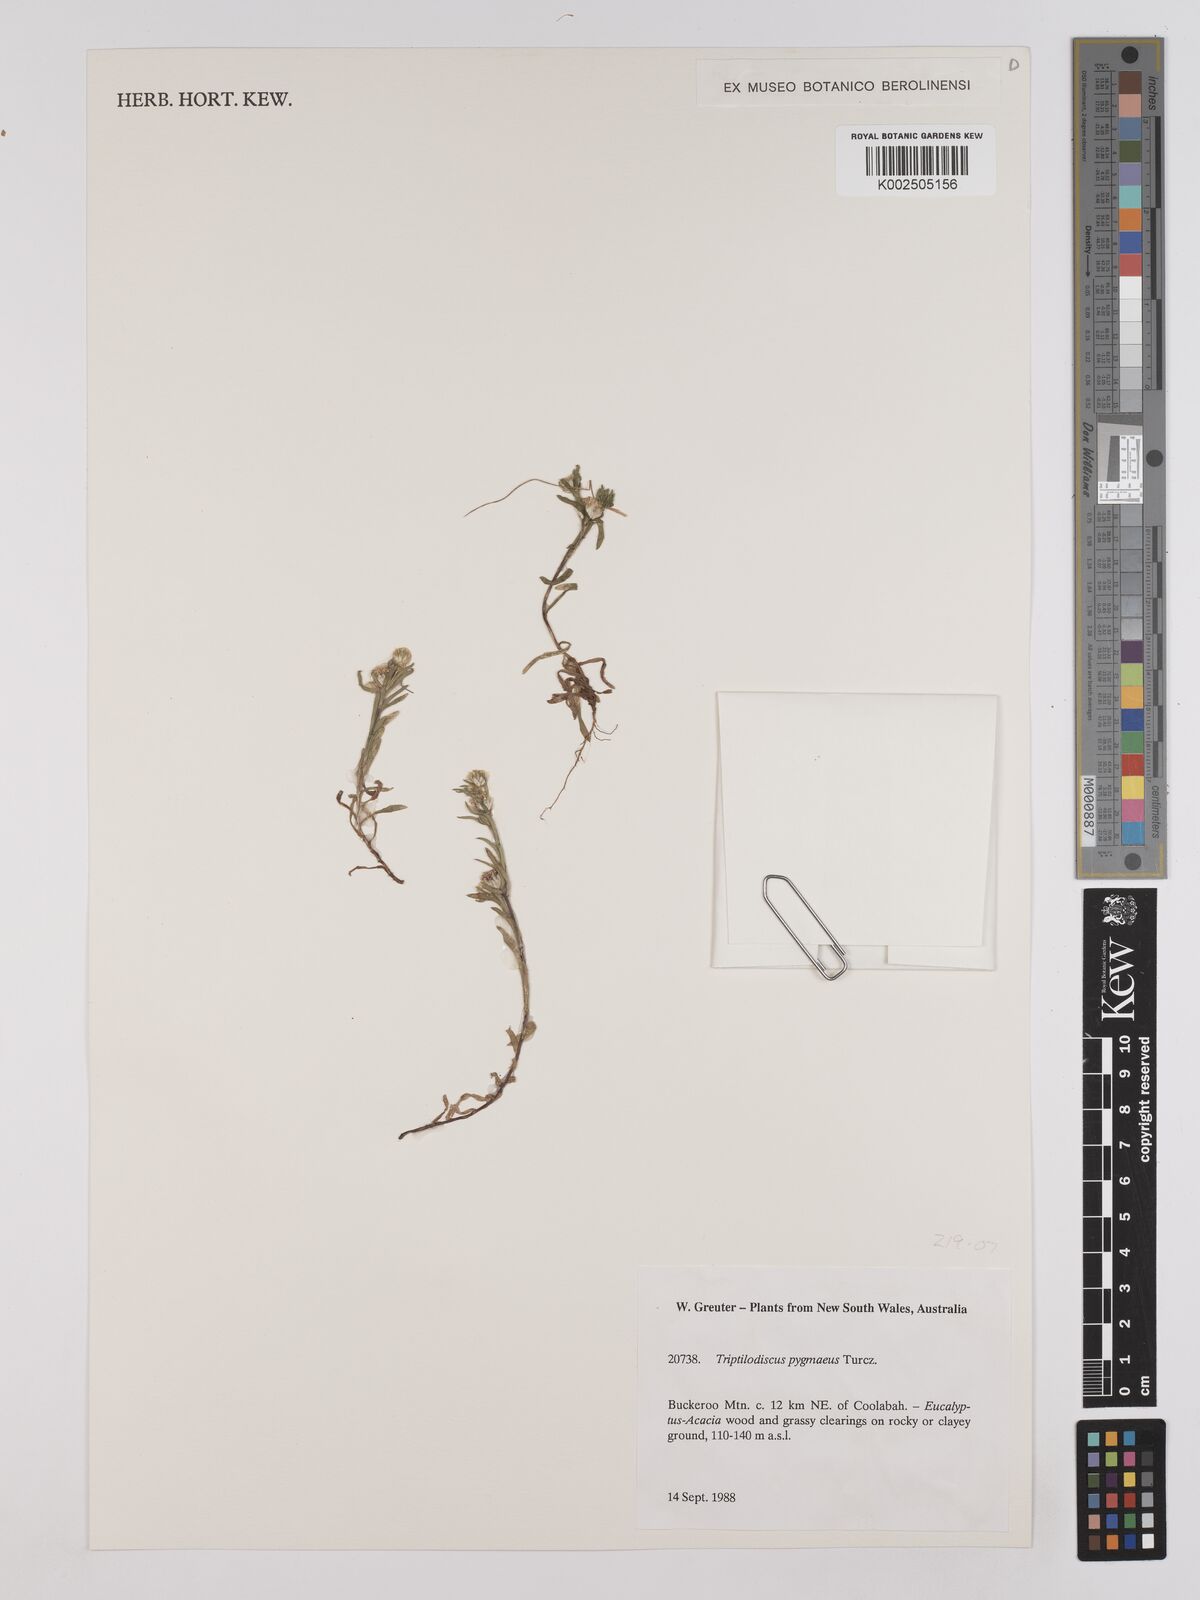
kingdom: Plantae
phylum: Tracheophyta
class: Magnoliopsida
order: Asterales
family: Asteraceae
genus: Triptilodiscus
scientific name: Triptilodiscus pygmaeus
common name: Common sunray
